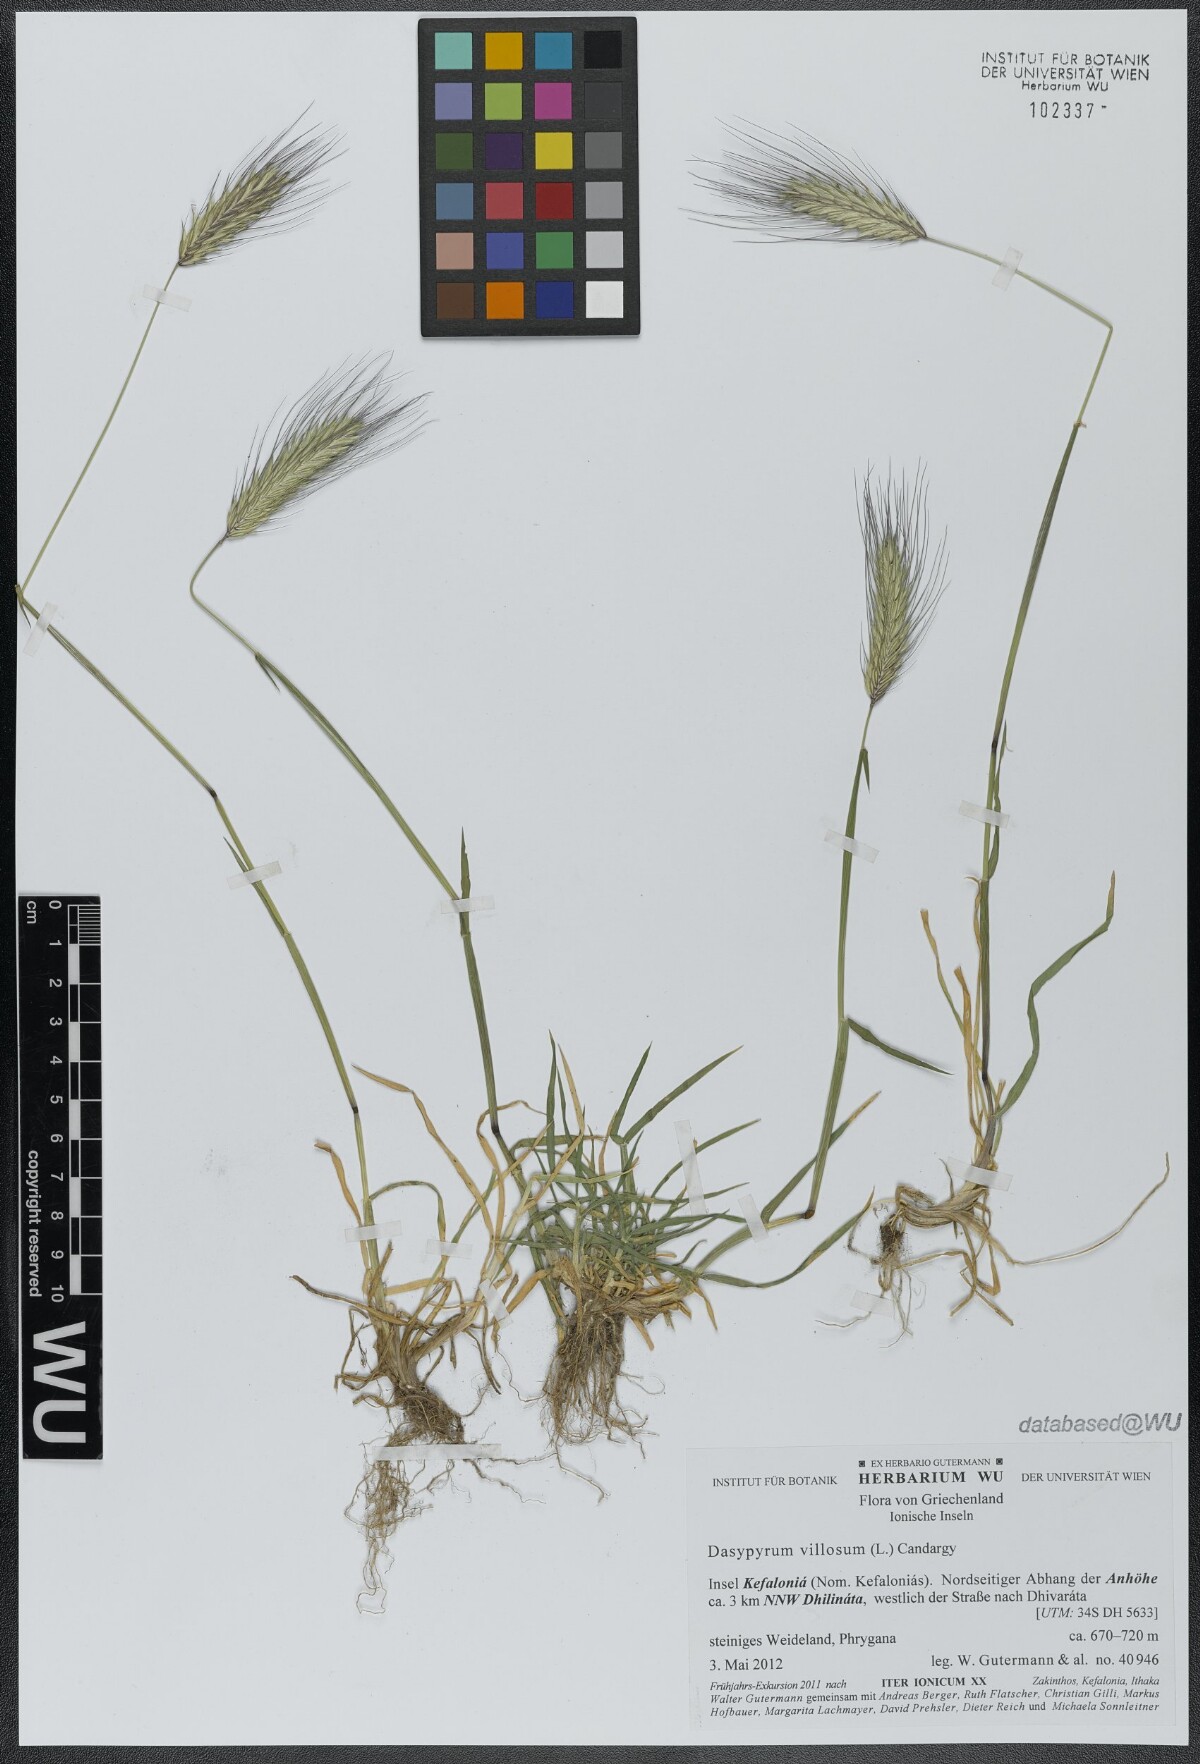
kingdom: Plantae
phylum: Tracheophyta
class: Liliopsida
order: Poales
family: Poaceae
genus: Dasypyrum
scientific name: Dasypyrum villosum
